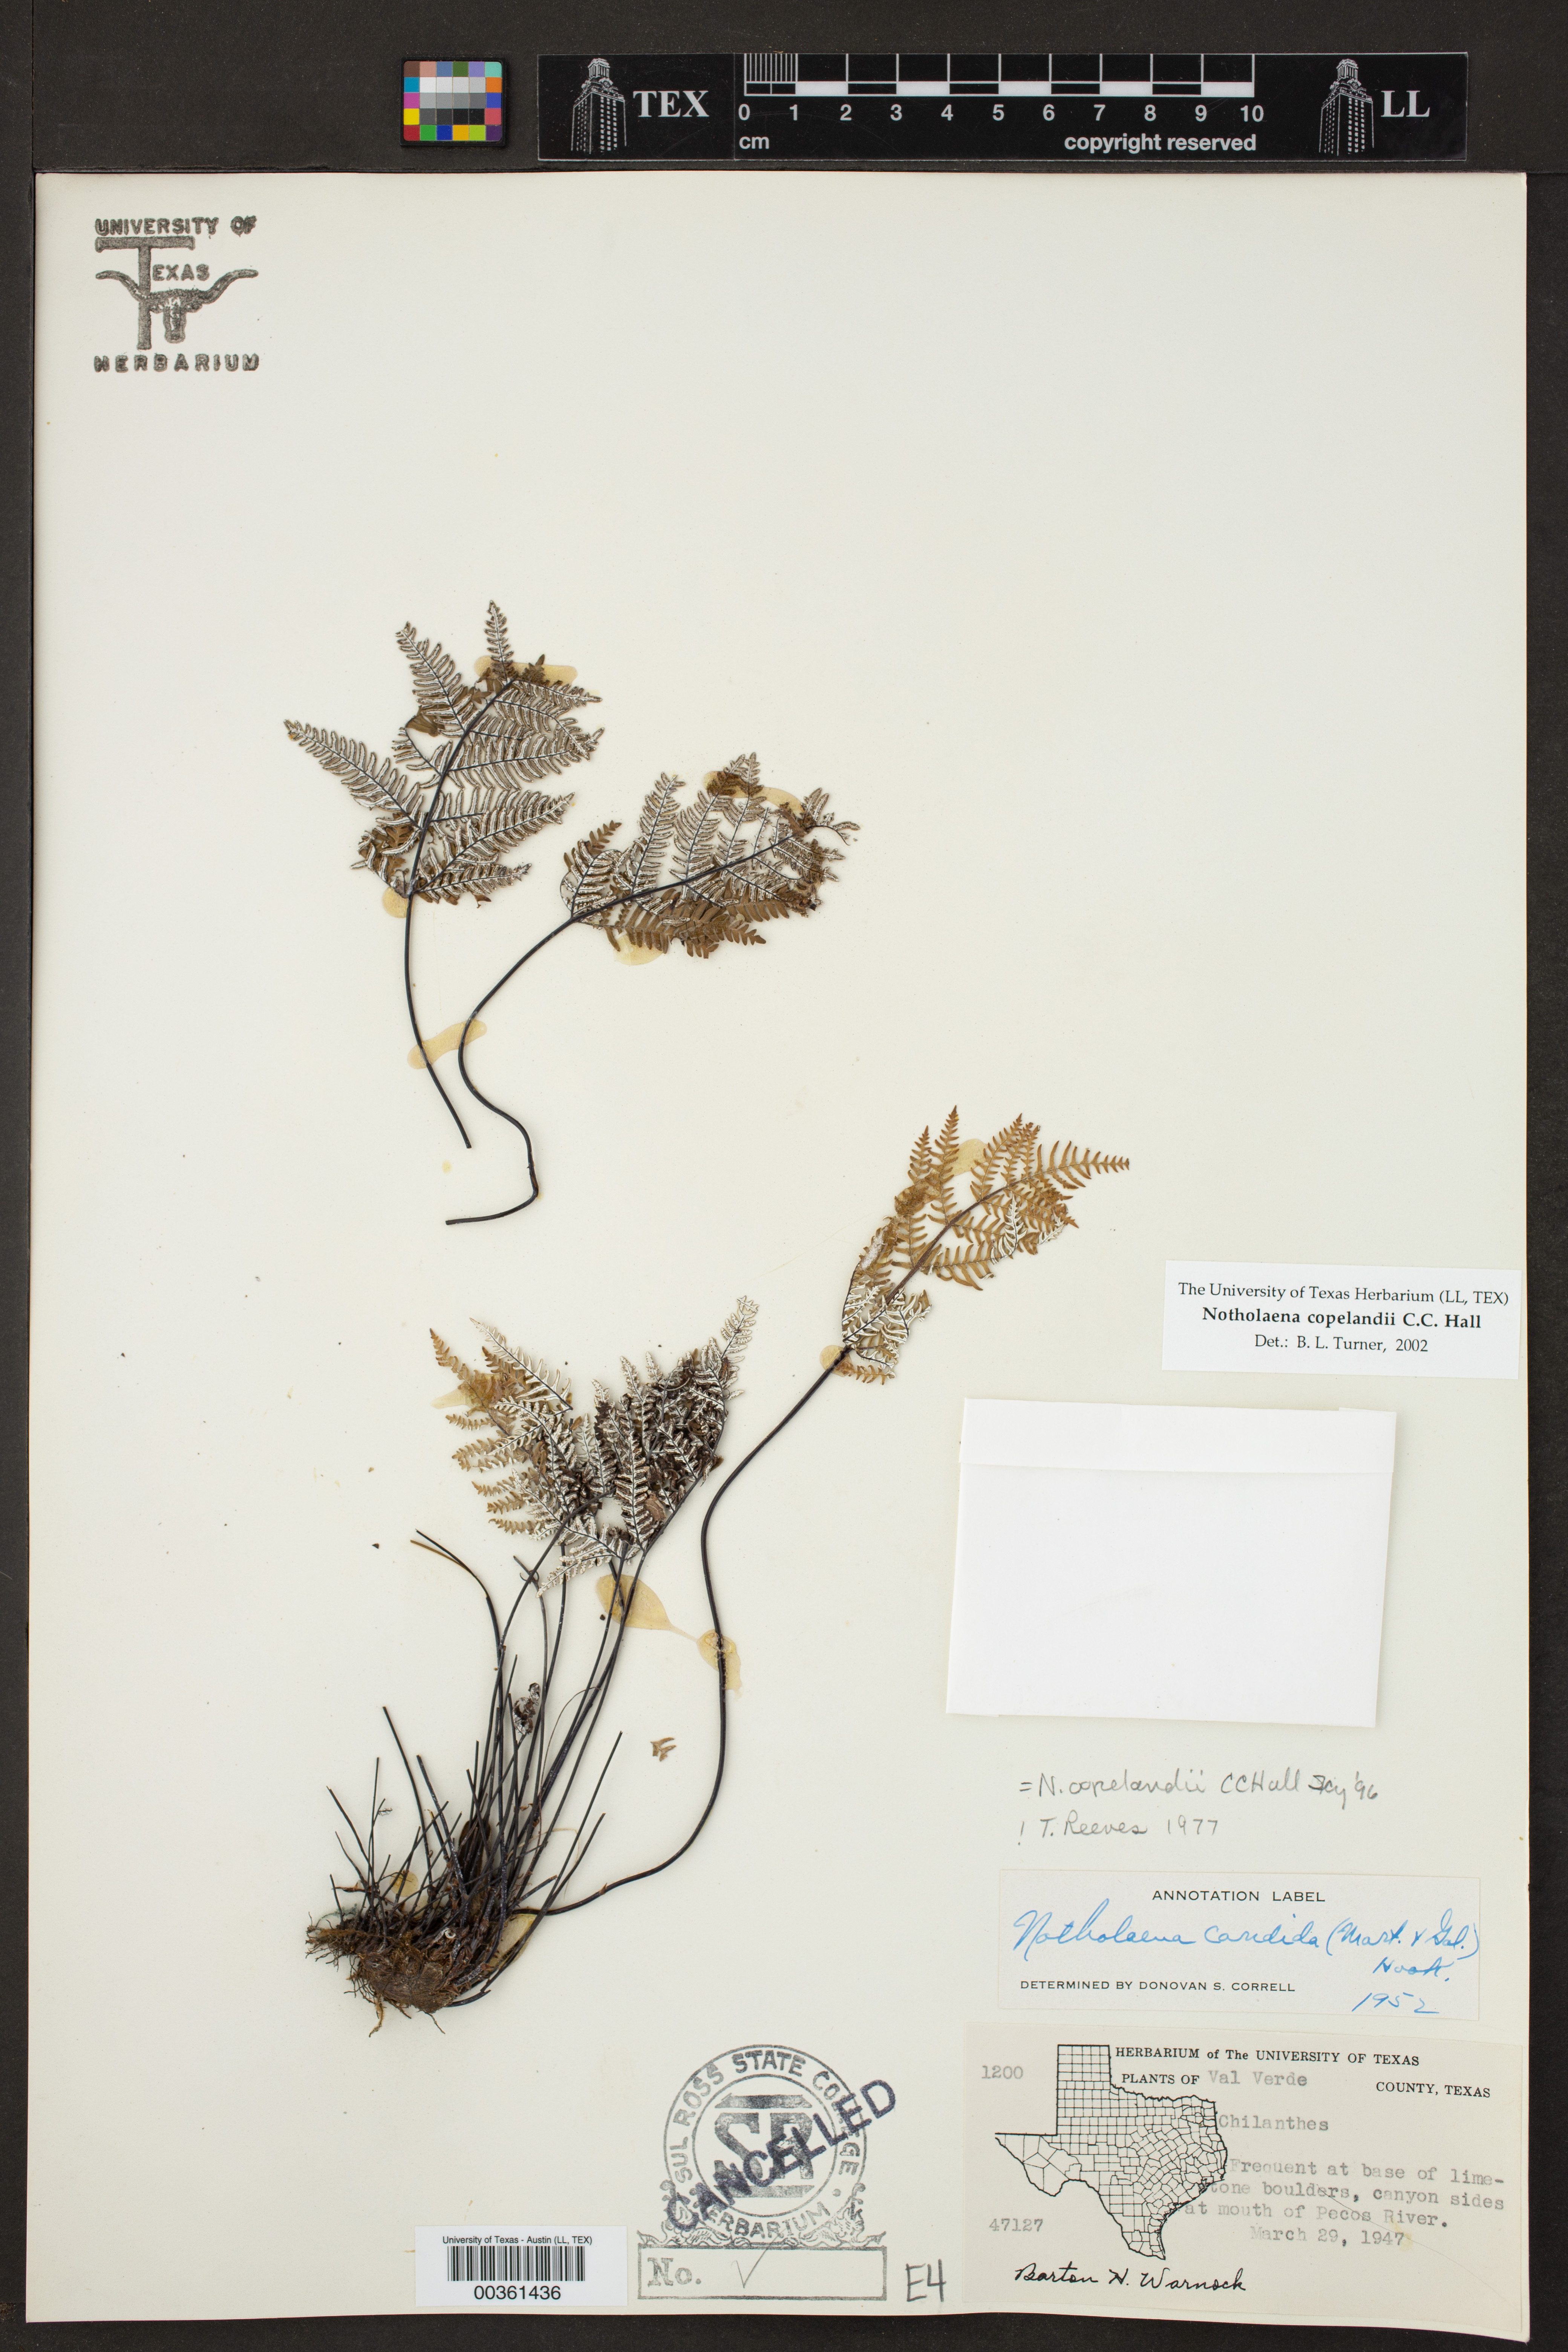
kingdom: Plantae
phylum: Tracheophyta
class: Polypodiopsida
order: Polypodiales
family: Pteridaceae
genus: Notholaena
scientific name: Notholaena candida
